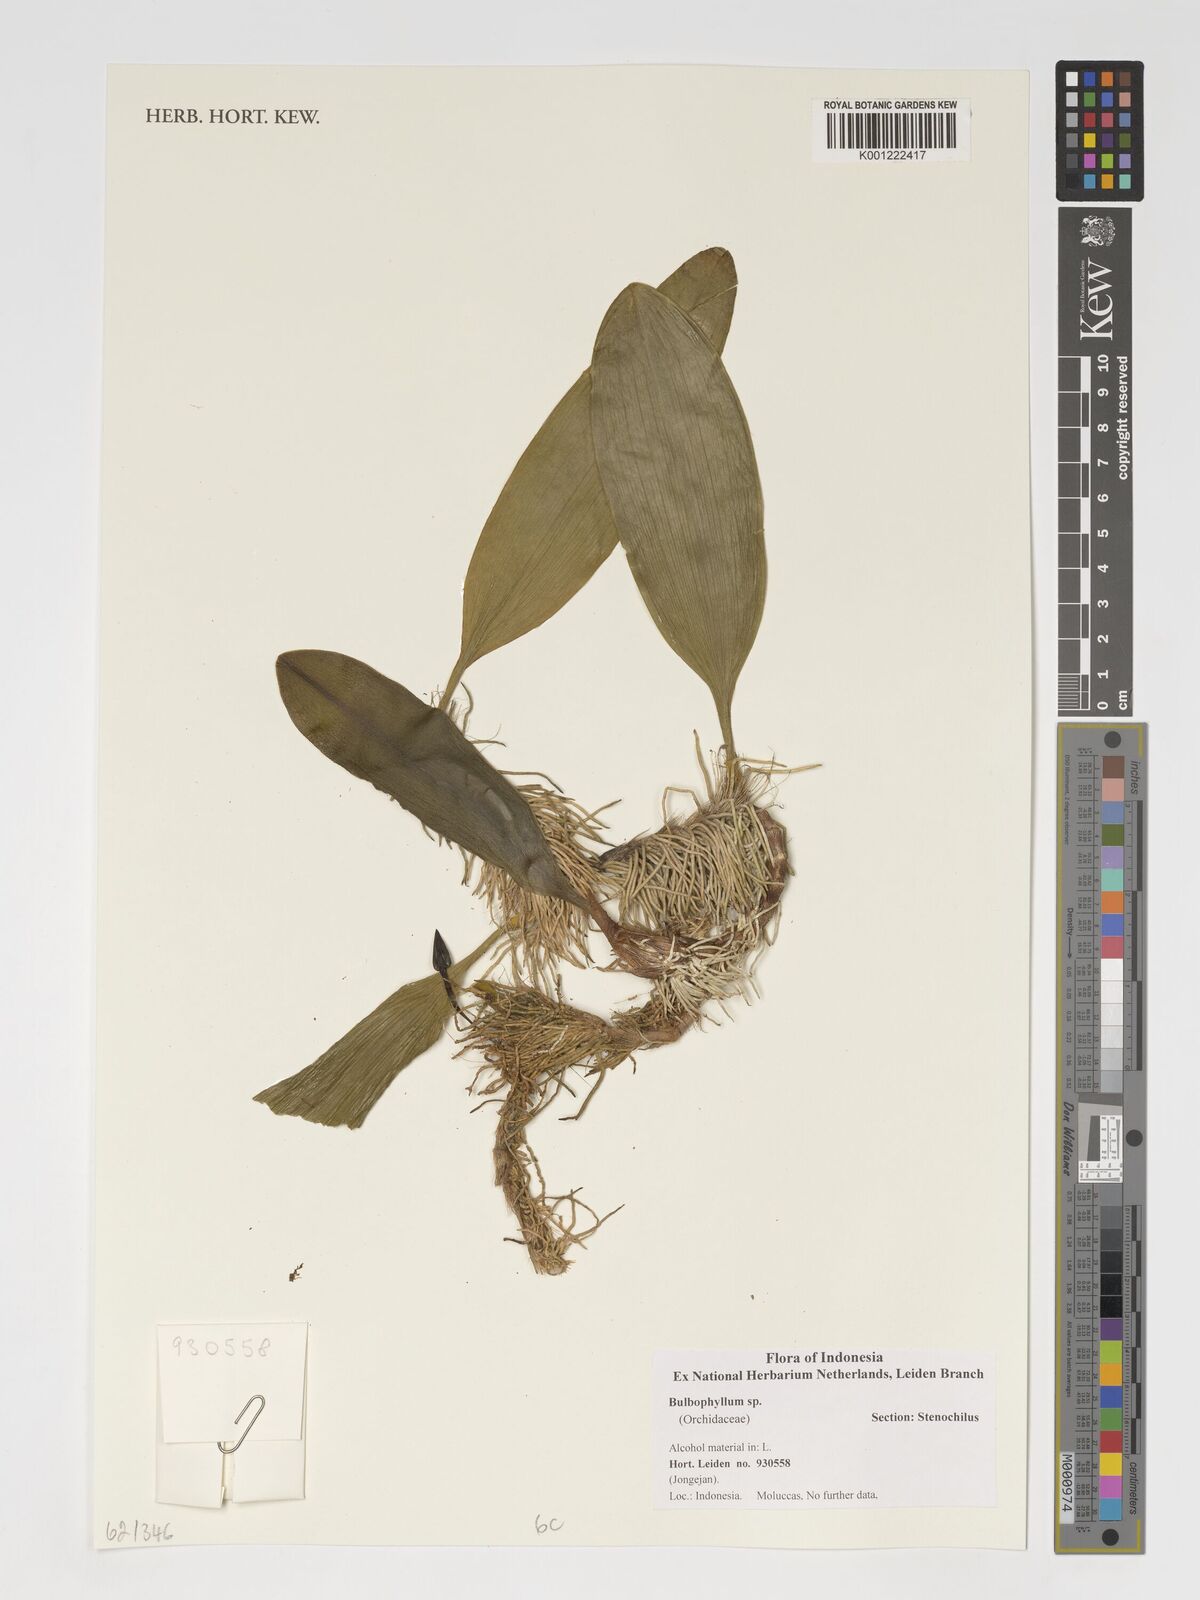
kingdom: Plantae
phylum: Tracheophyta
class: Liliopsida
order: Asparagales
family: Orchidaceae
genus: Bulbophyllum
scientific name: Bulbophyllum
